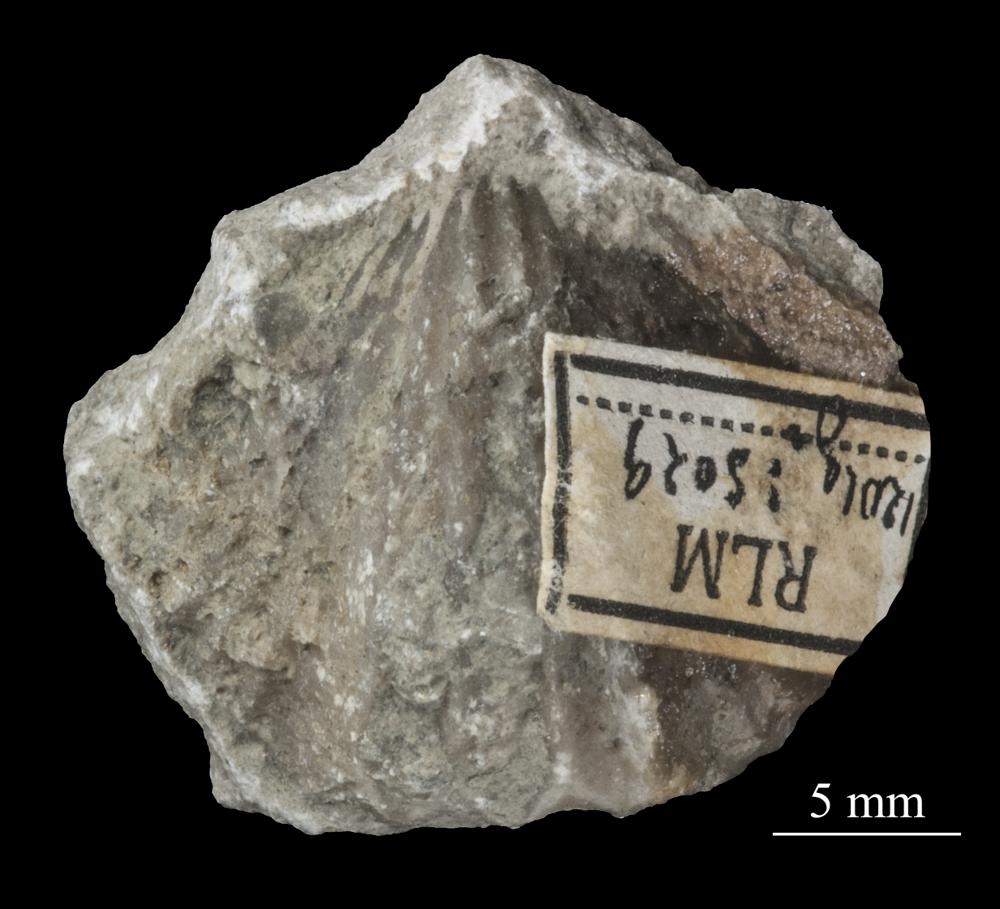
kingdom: Animalia
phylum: Brachiopoda
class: Rhynchonellata
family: Plectorthidae
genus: Platystrophia
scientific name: Platystrophia Terebratulites biforatus
